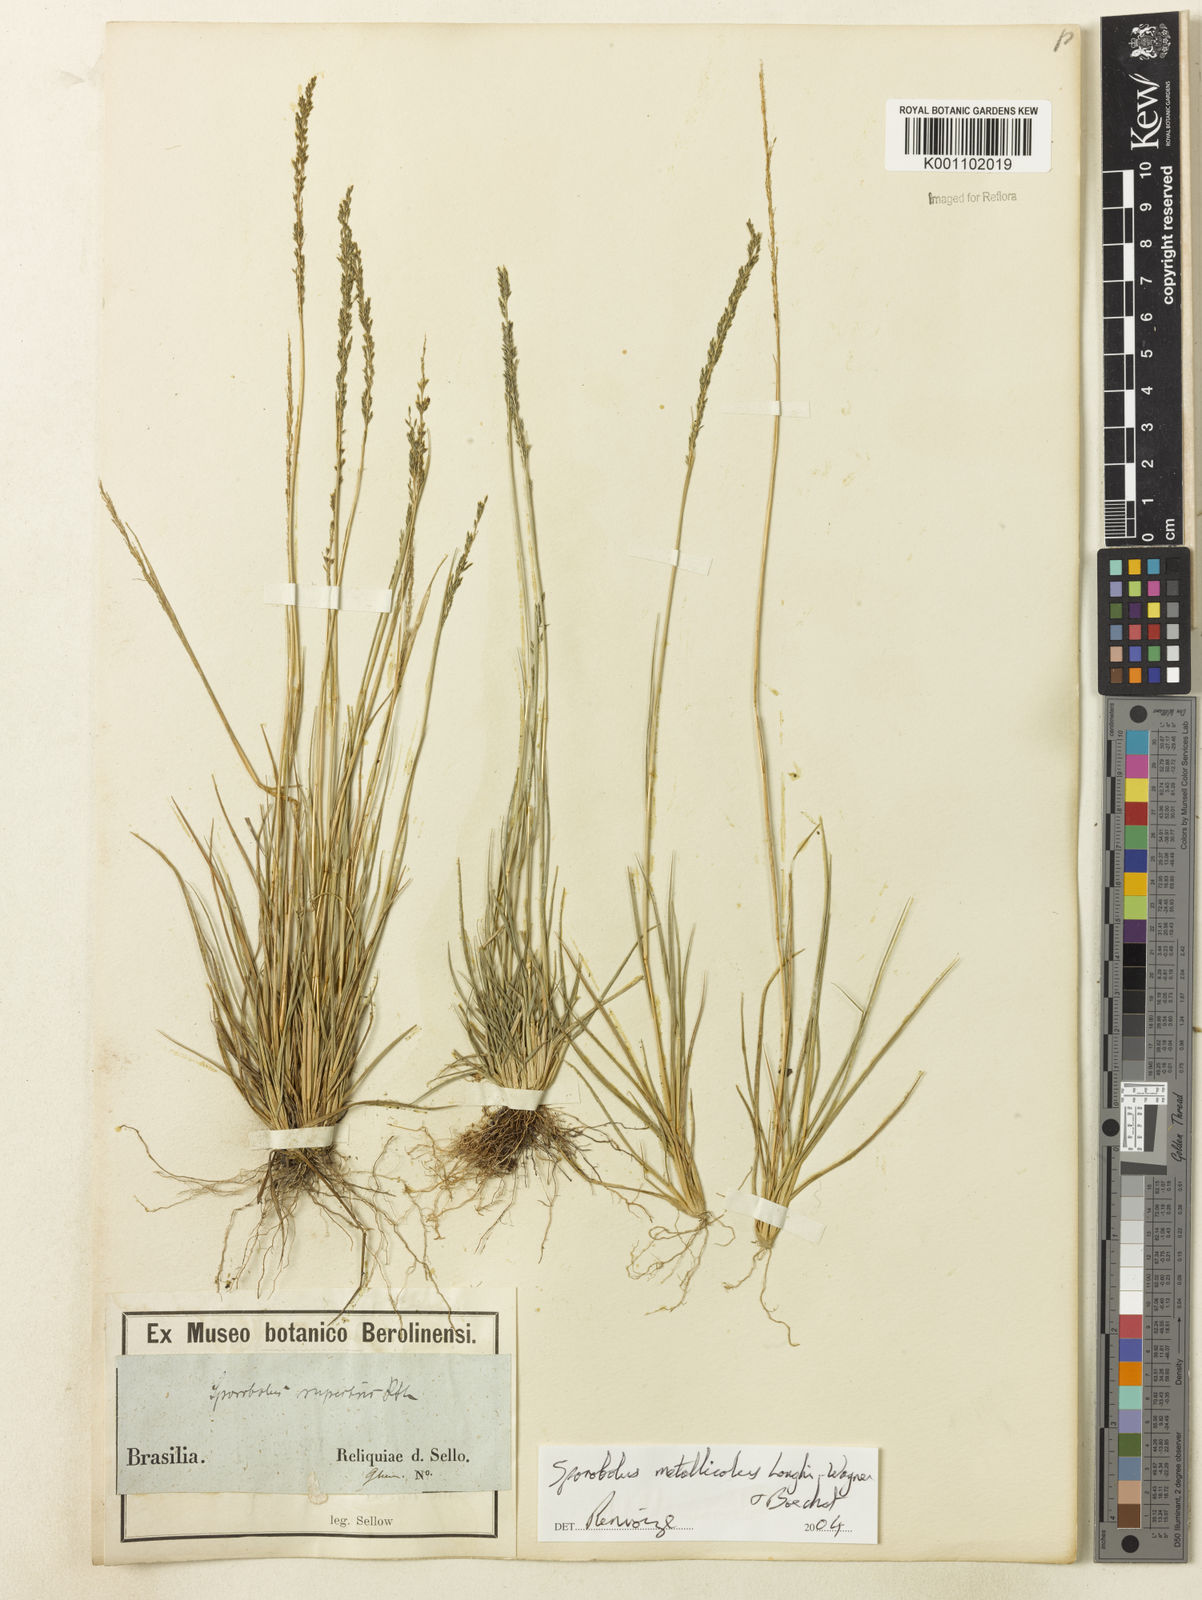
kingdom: Plantae
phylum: Tracheophyta
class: Liliopsida
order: Poales
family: Poaceae
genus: Sporobolus
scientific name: Sporobolus metallicola
